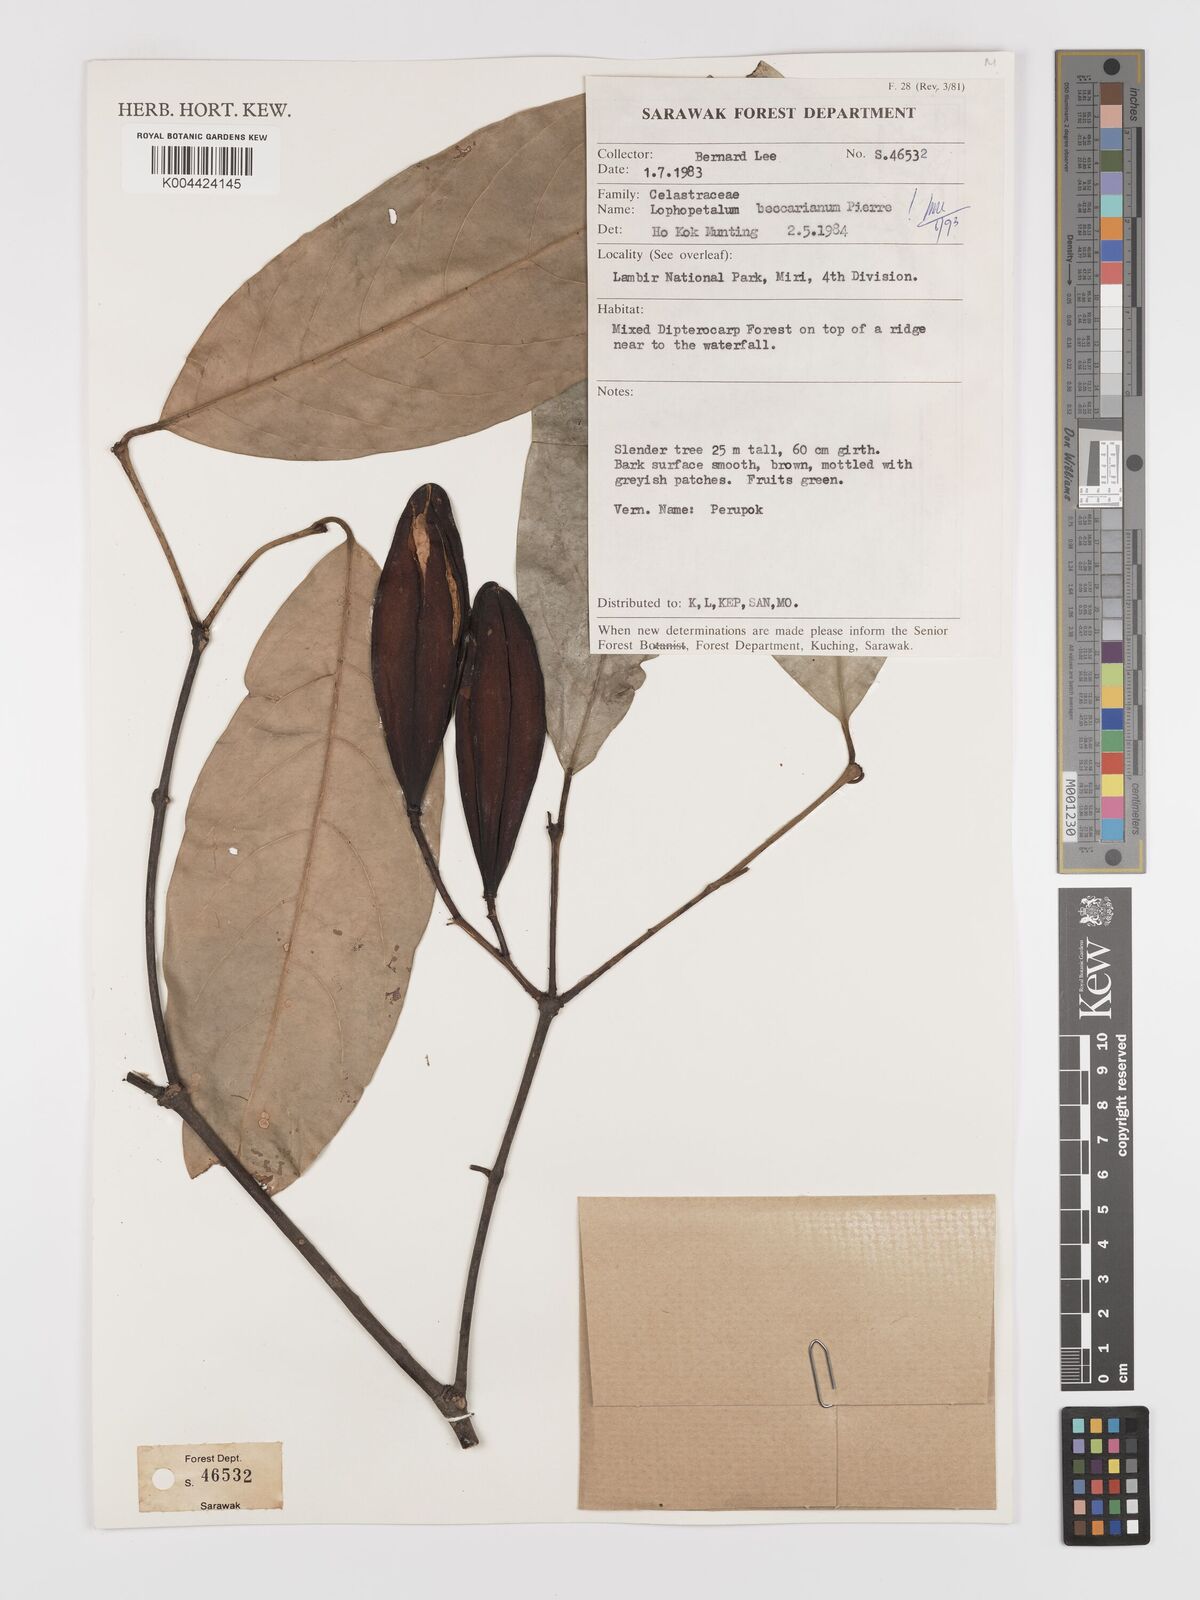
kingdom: Plantae
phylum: Tracheophyta
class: Magnoliopsida
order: Celastrales
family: Celastraceae
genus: Lophopetalum
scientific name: Lophopetalum beccarianum
